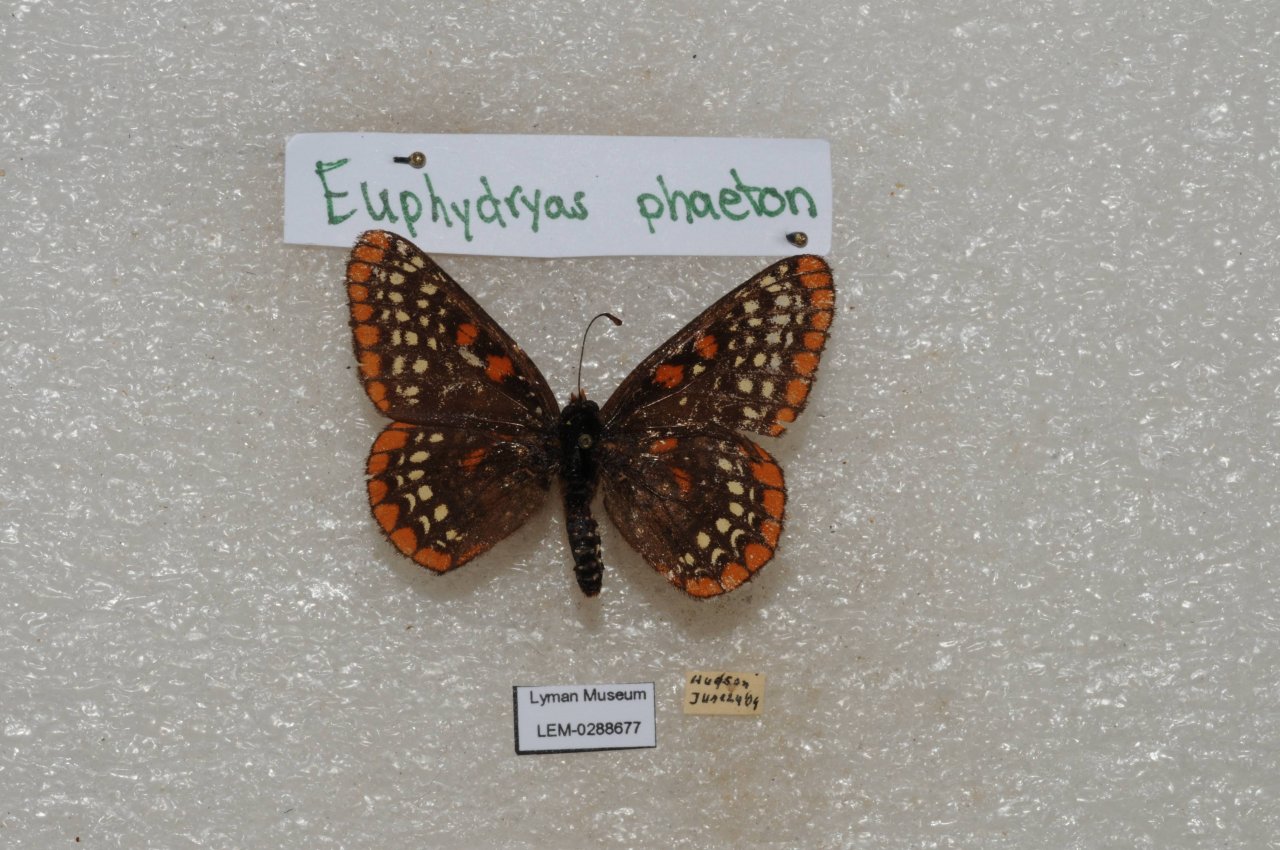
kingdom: Animalia
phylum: Arthropoda
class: Insecta
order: Lepidoptera
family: Nymphalidae
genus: Euphydryas
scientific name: Euphydryas phaeton
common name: Baltimore Checkerspot
